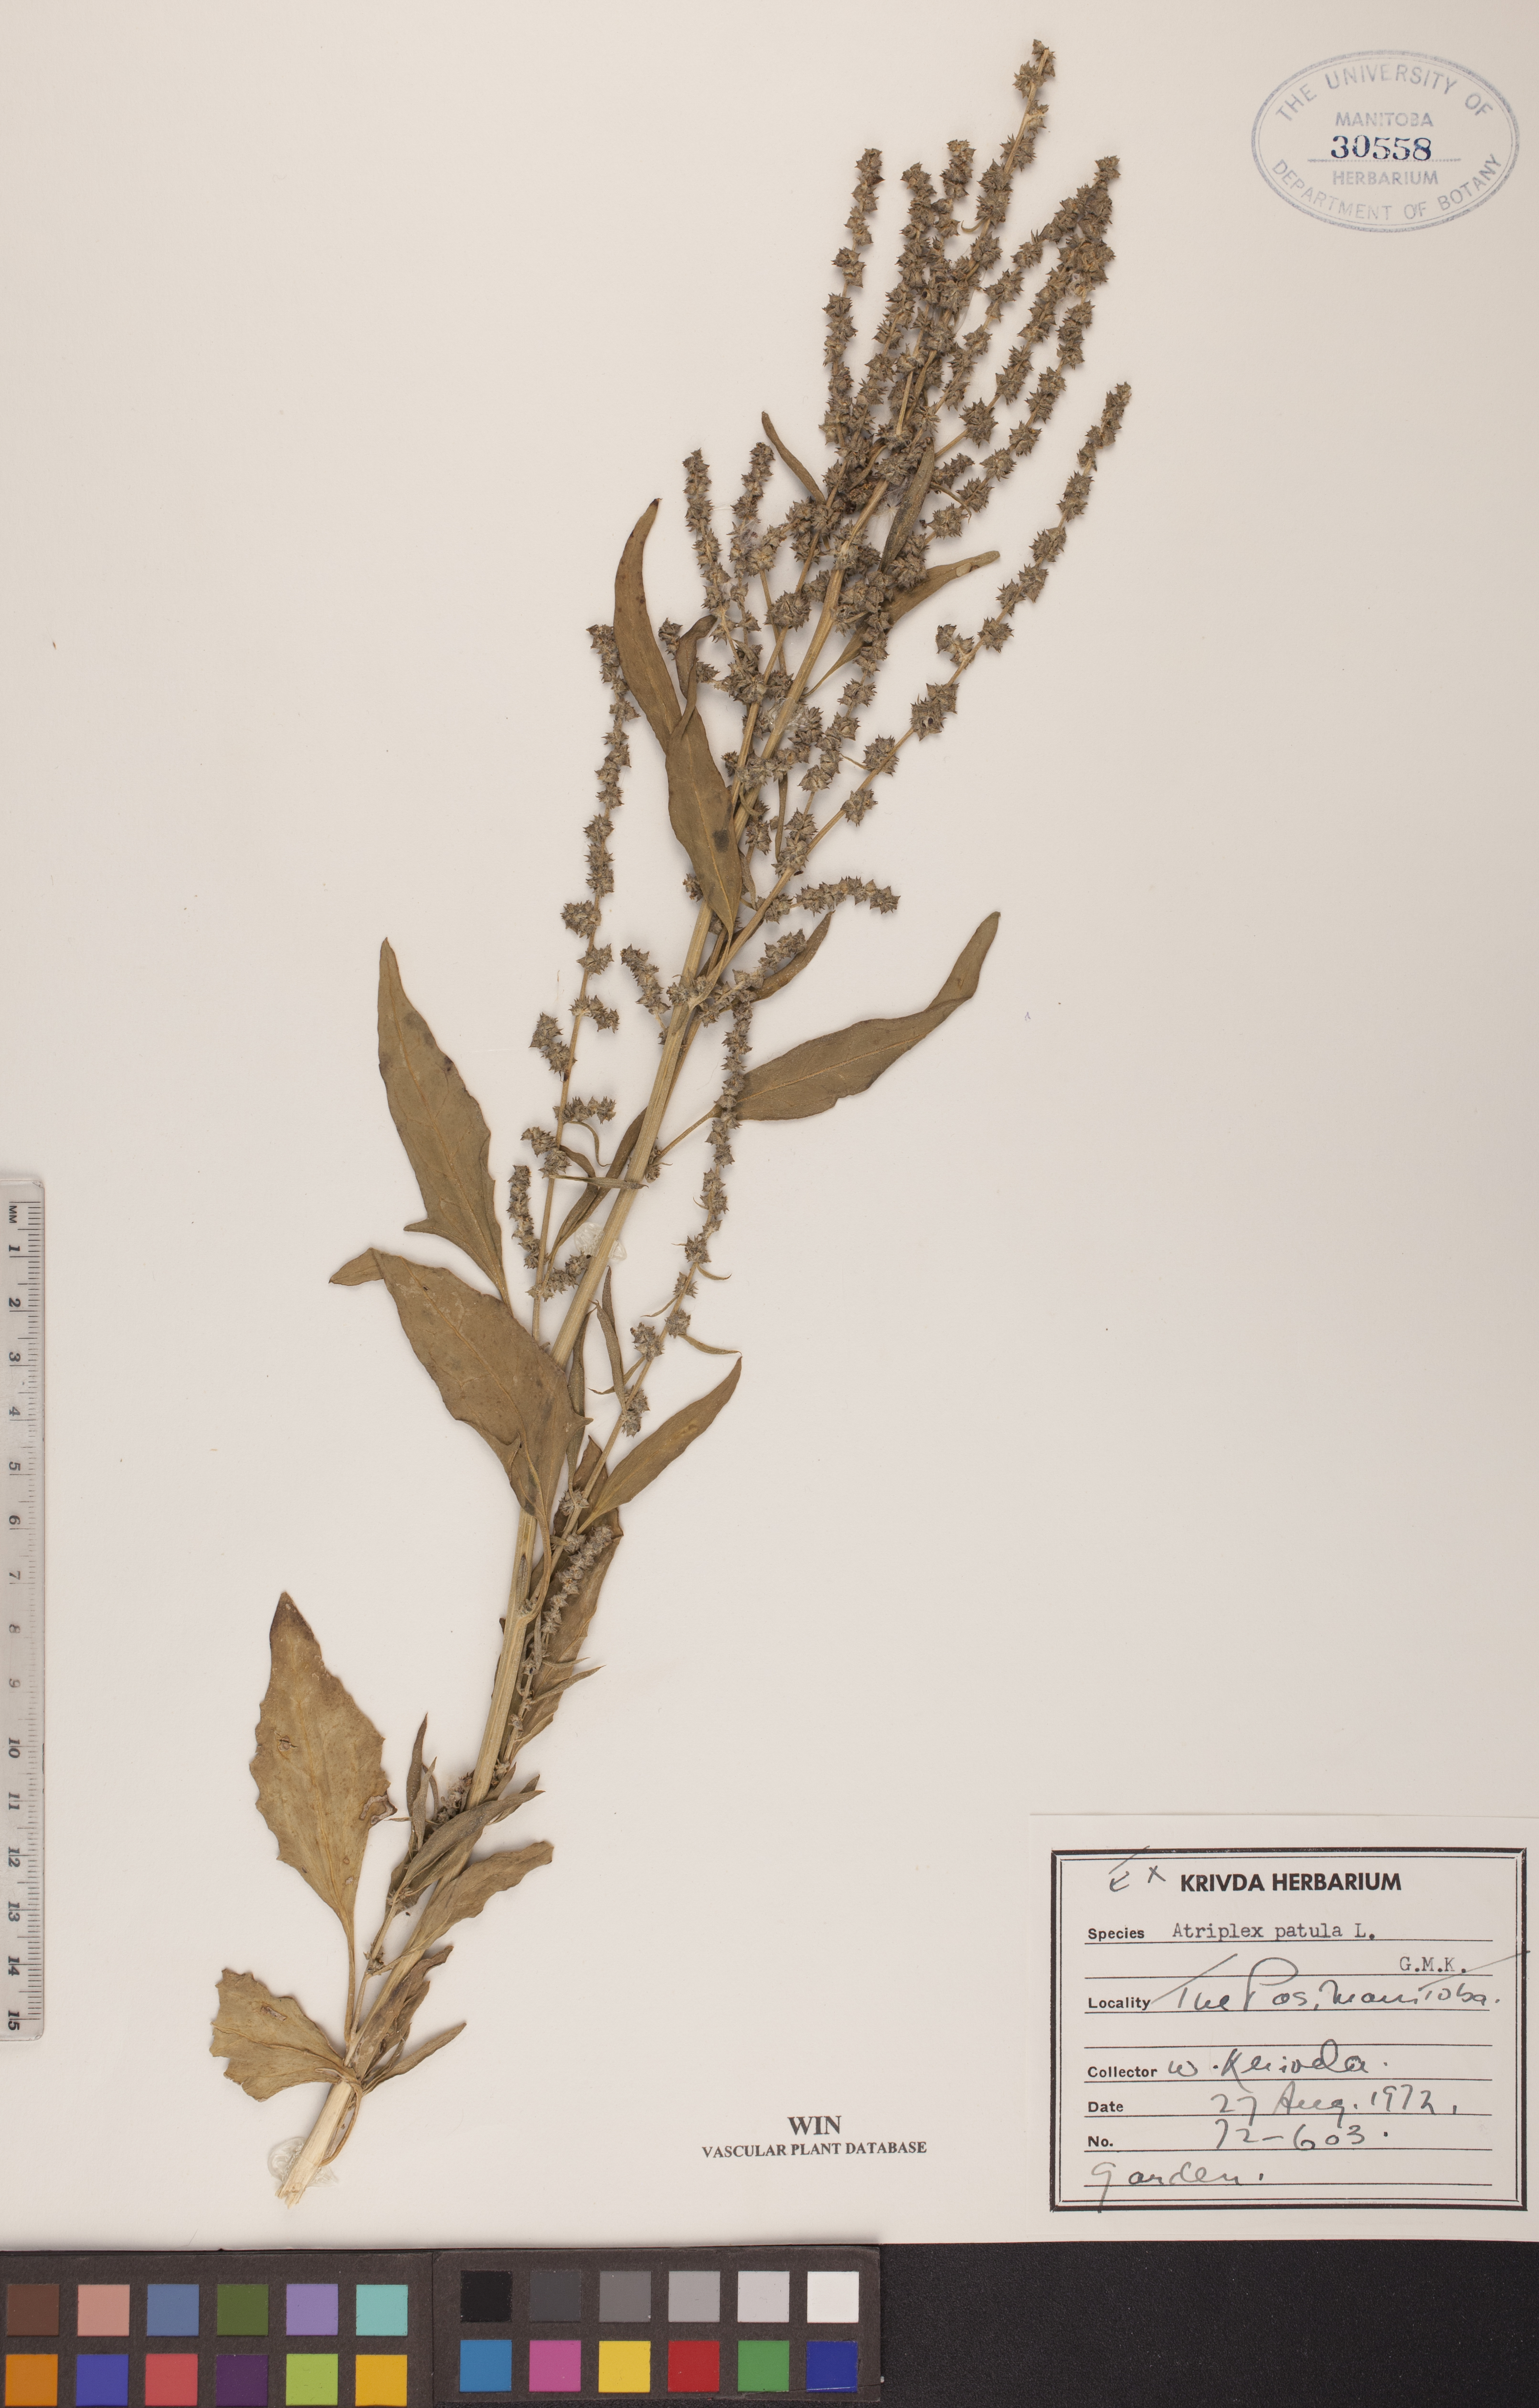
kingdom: Plantae
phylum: Tracheophyta
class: Magnoliopsida
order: Caryophyllales
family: Amaranthaceae
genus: Atriplex
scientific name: Atriplex patula
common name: Common orache
